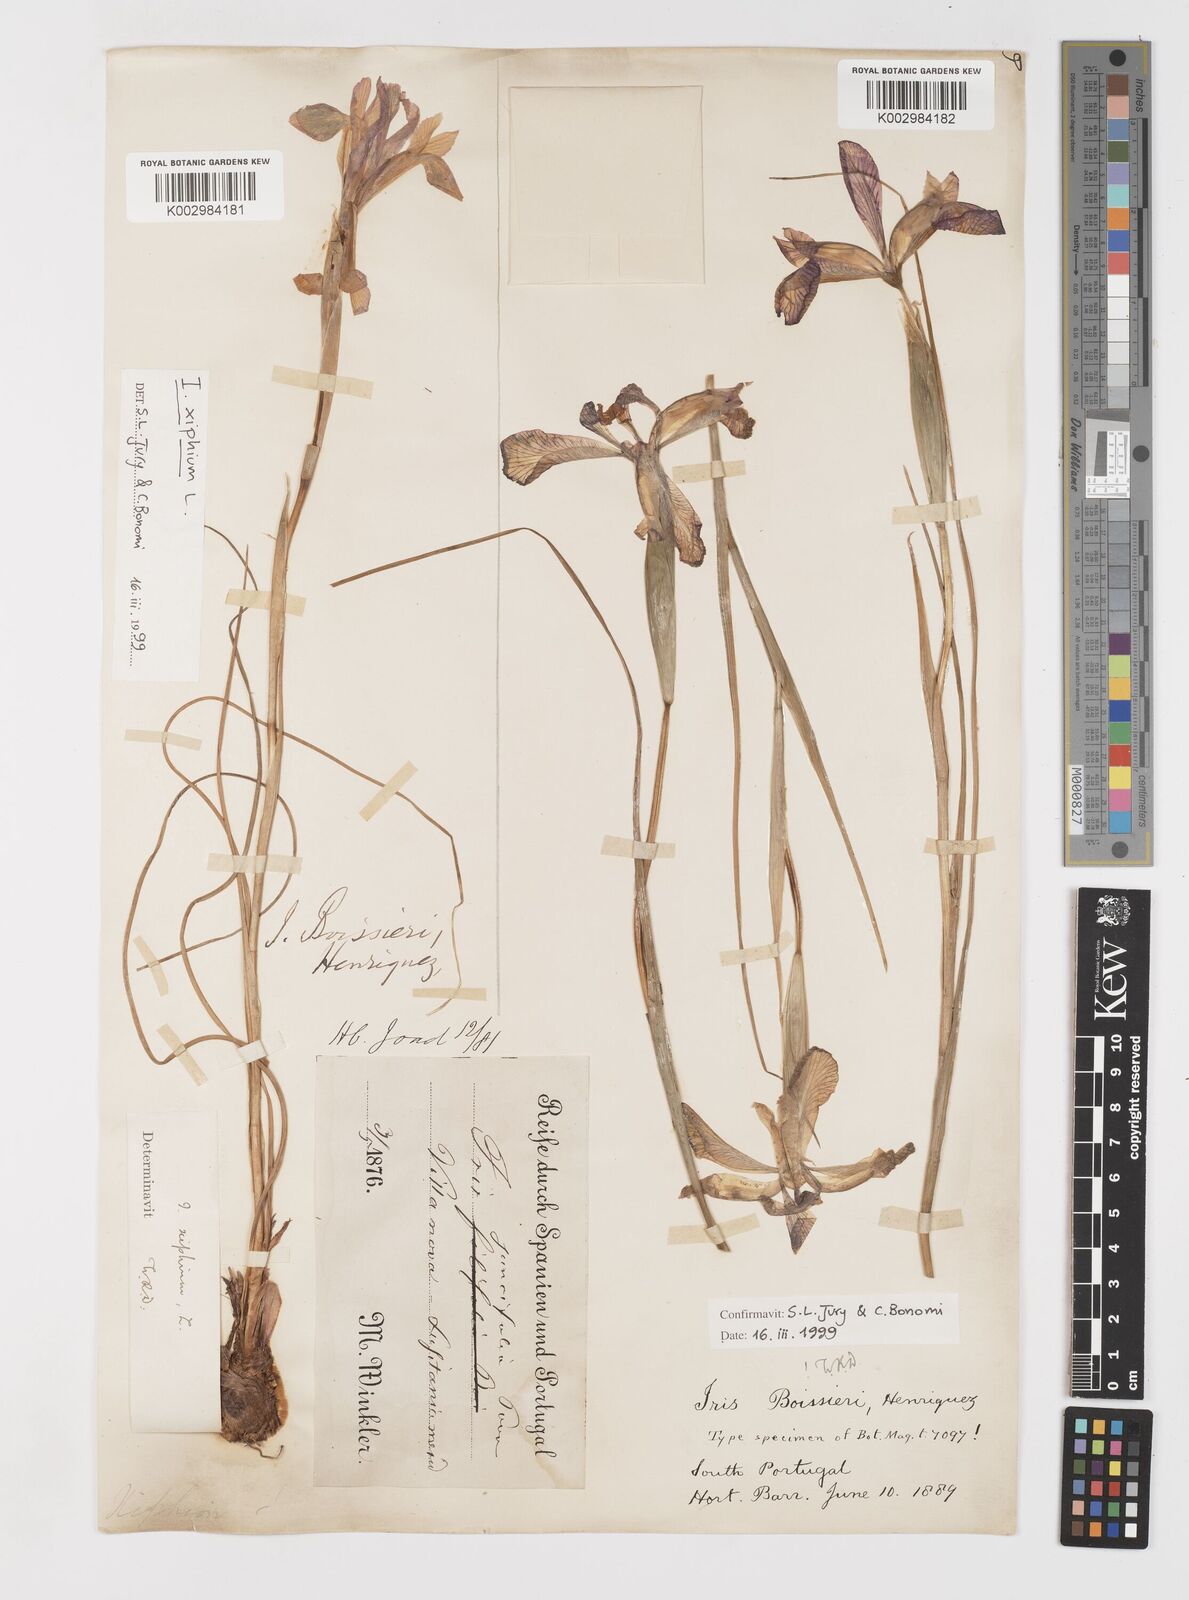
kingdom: Plantae
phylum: Tracheophyta
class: Liliopsida
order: Asparagales
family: Iridaceae
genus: Iris
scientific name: Iris boissieri
